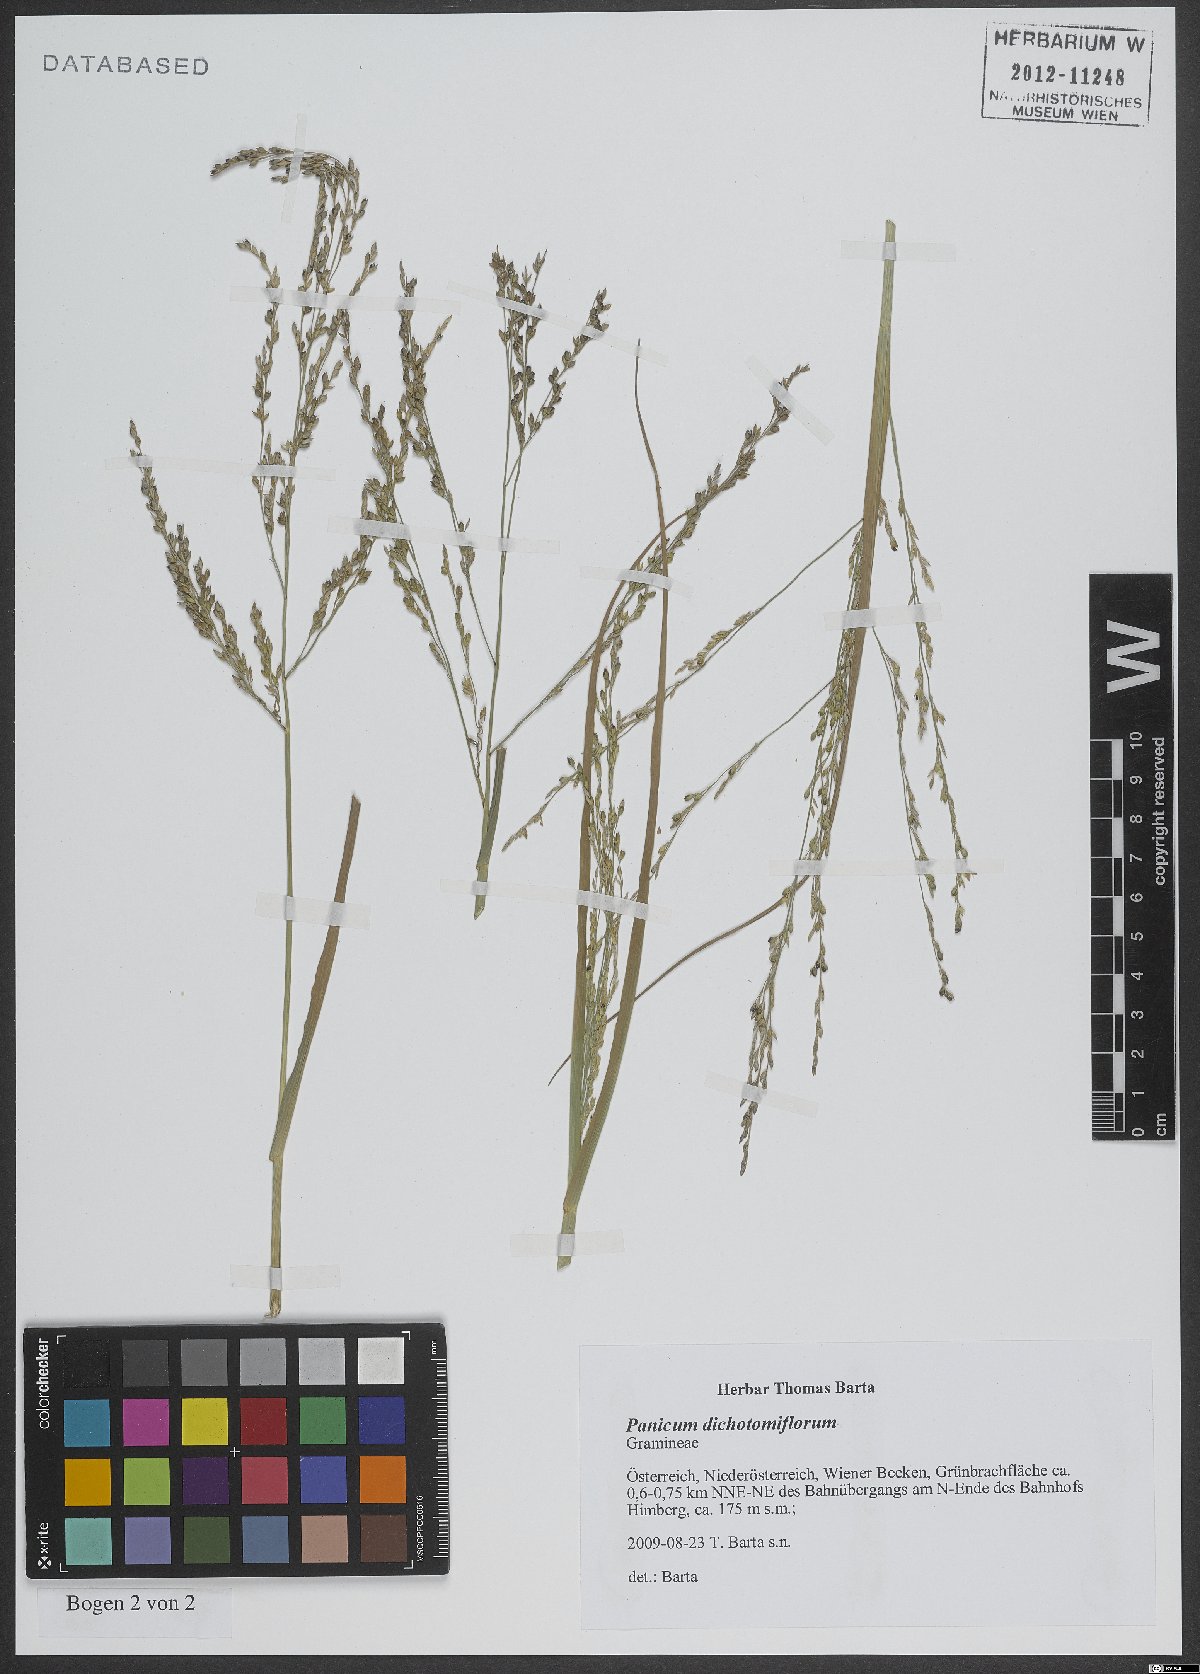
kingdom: Plantae
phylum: Tracheophyta
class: Liliopsida
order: Poales
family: Poaceae
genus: Panicum
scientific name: Panicum dichotomiflorum
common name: Autumn millet
